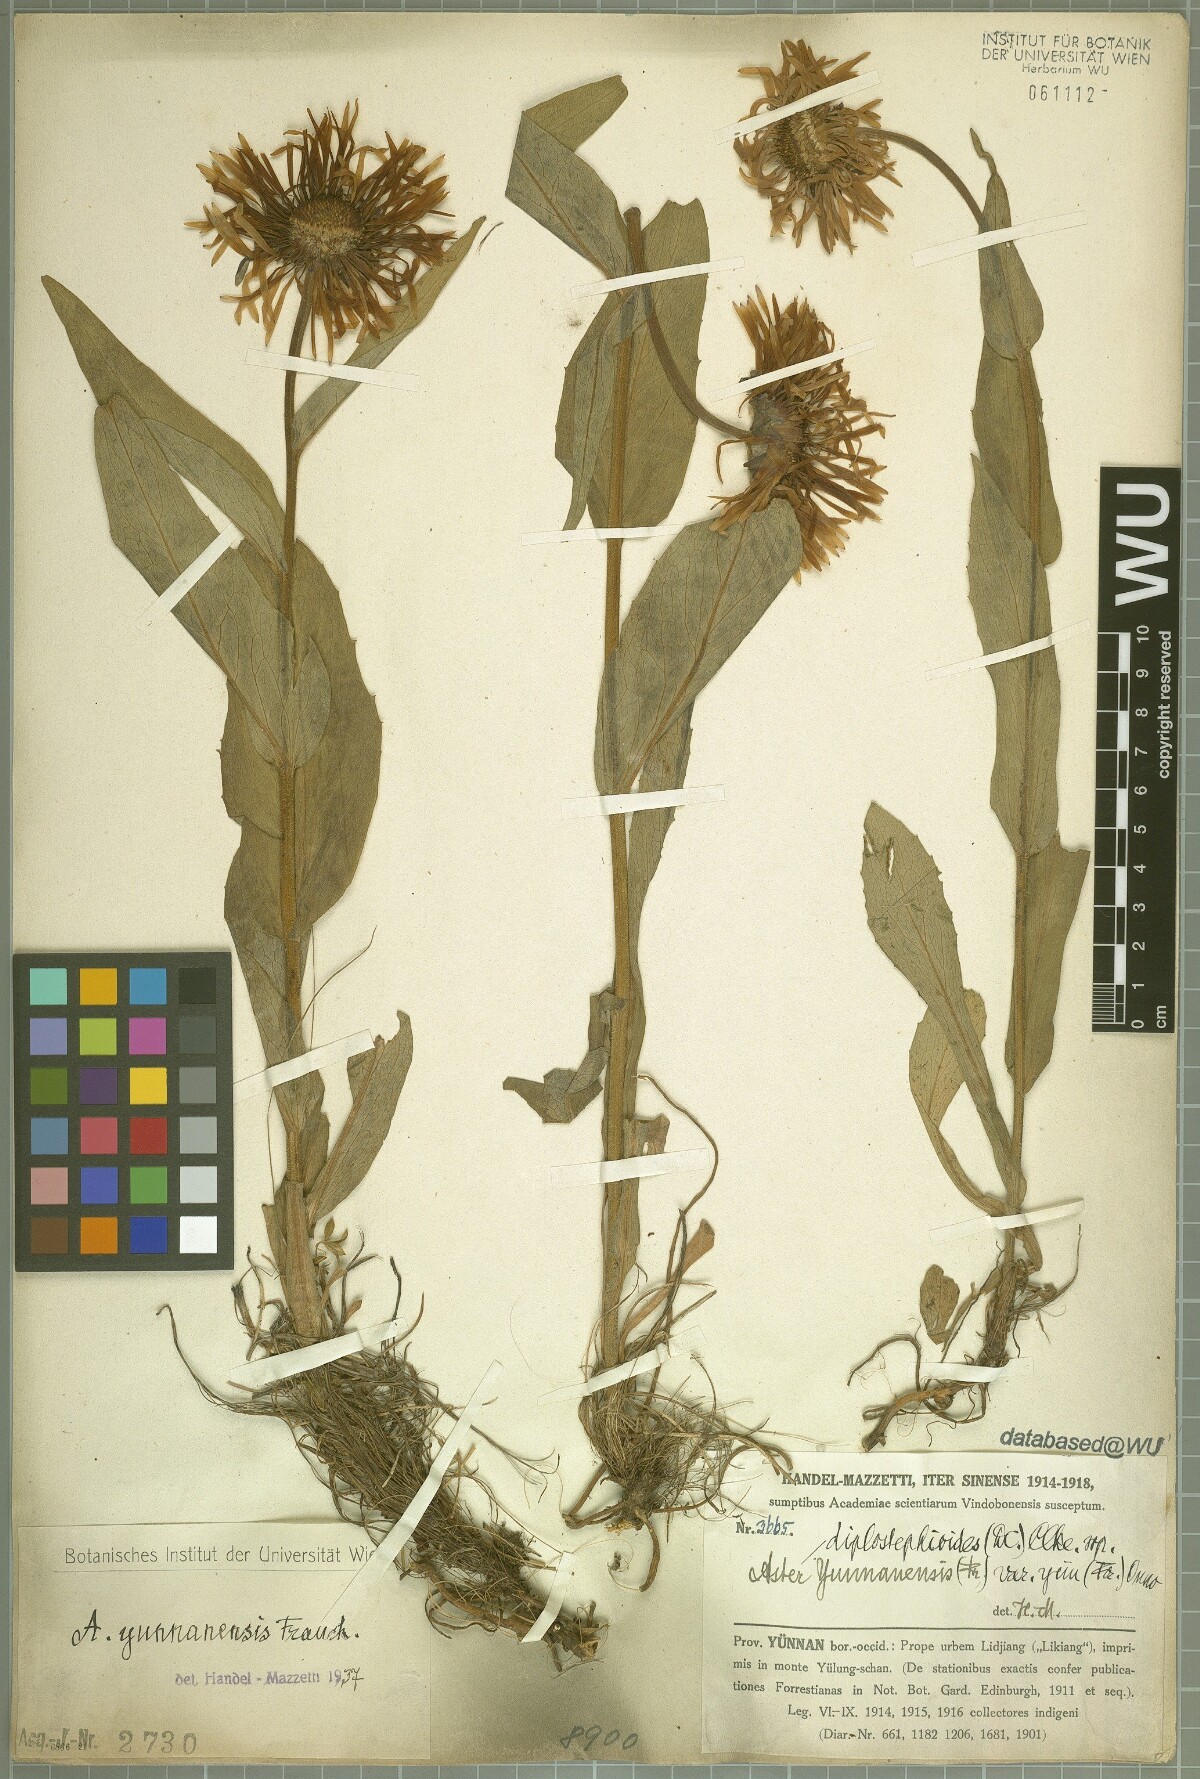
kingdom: Plantae
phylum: Tracheophyta
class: Magnoliopsida
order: Asterales
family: Asteraceae
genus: Tibetiodes
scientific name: Tibetiodes yunnanensis
